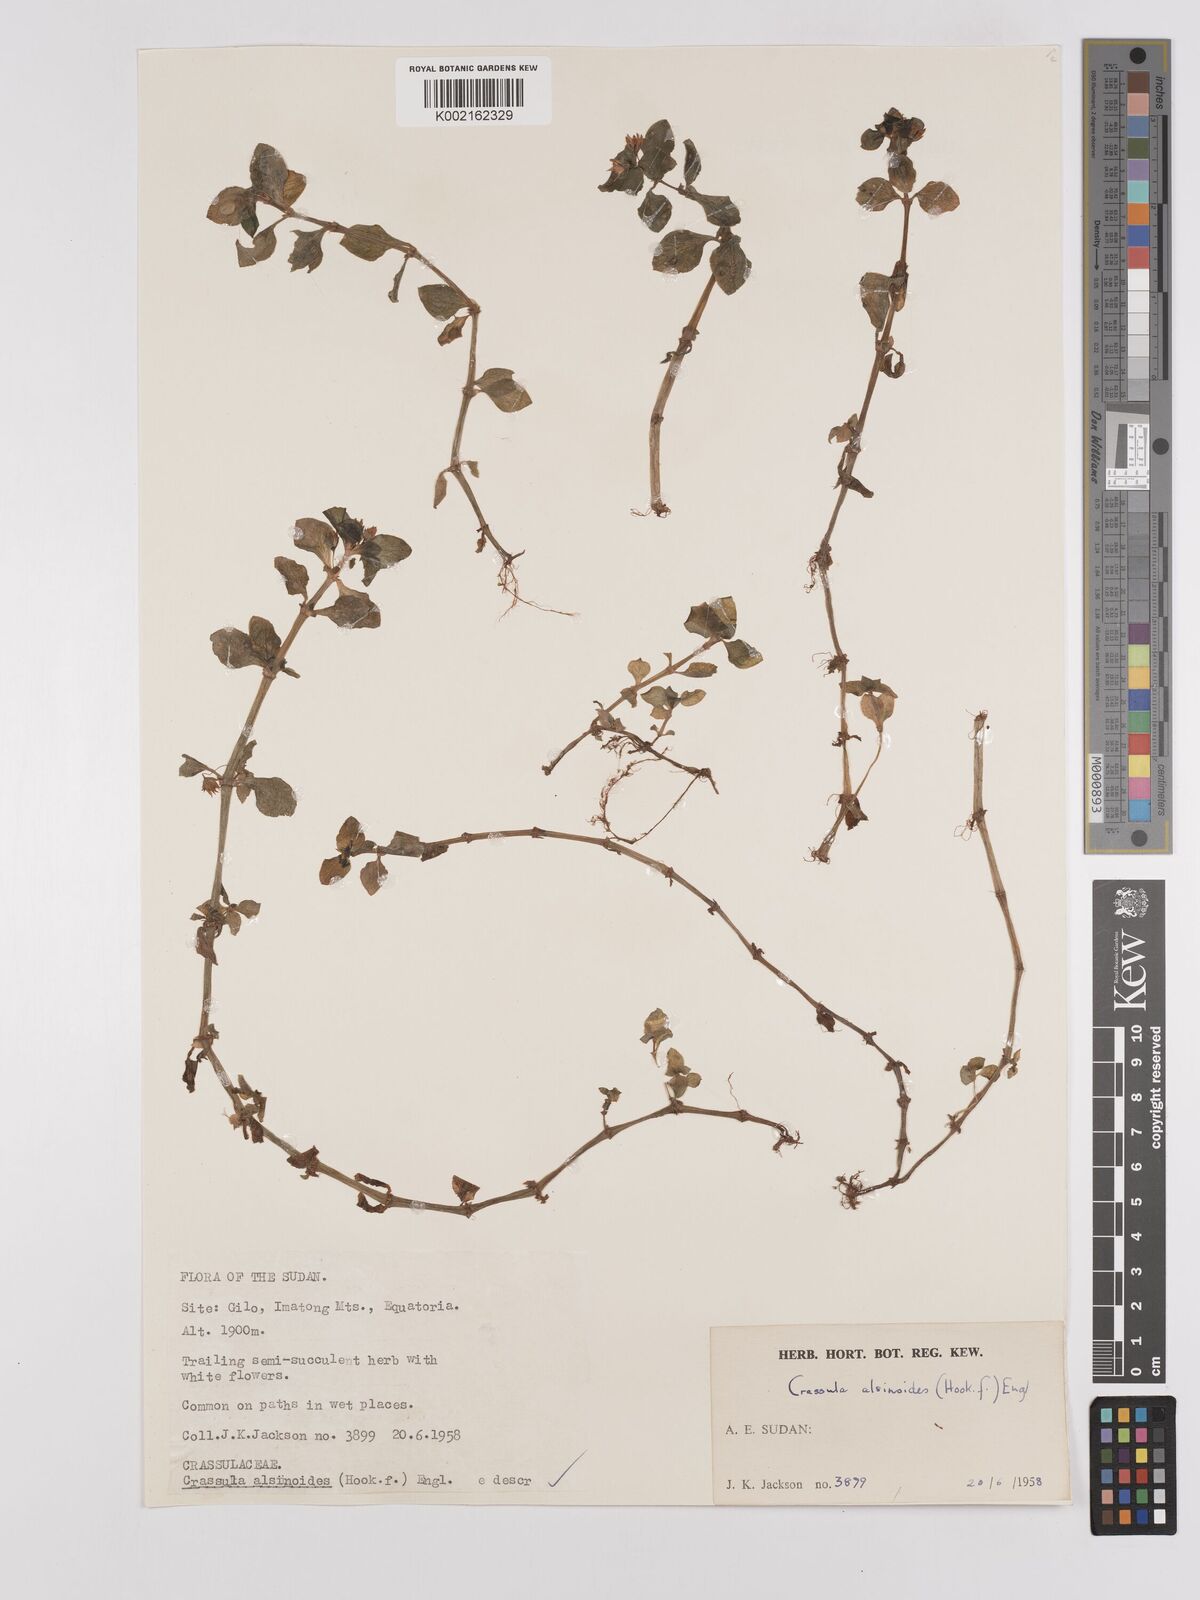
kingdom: Plantae
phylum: Tracheophyta
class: Magnoliopsida
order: Saxifragales
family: Crassulaceae
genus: Crassula
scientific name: Crassula alsinoides
